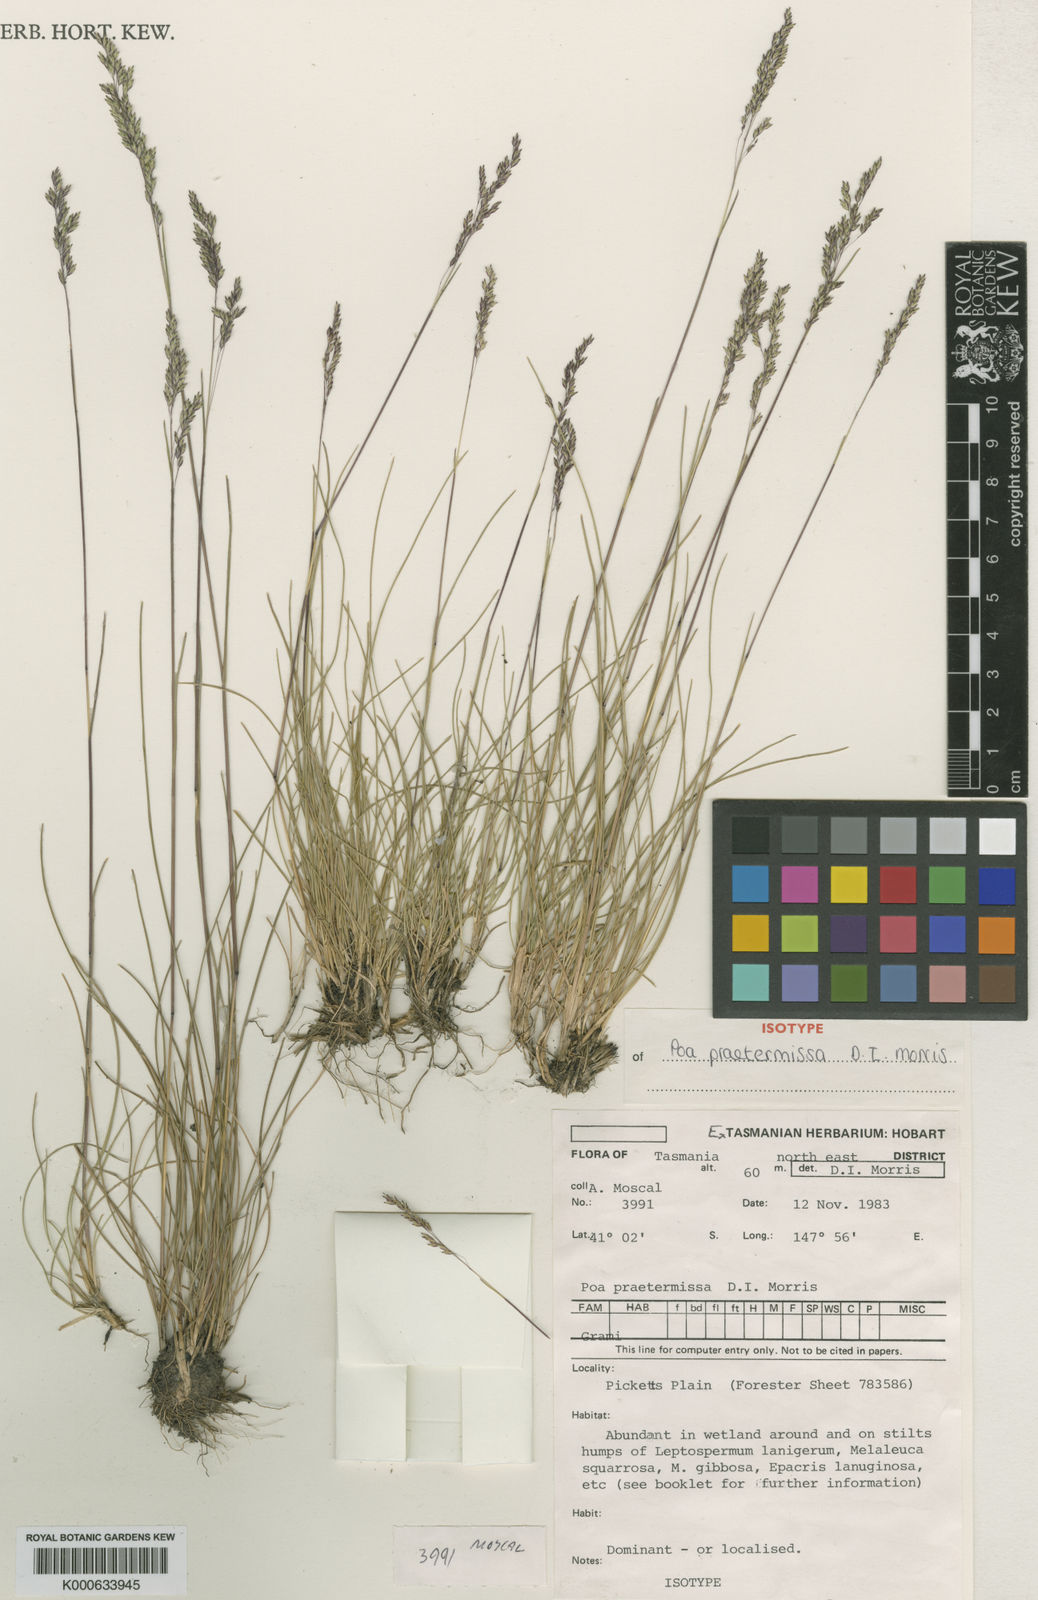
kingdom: Plantae
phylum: Tracheophyta
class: Liliopsida
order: Poales
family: Poaceae
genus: Poa
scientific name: Poa
